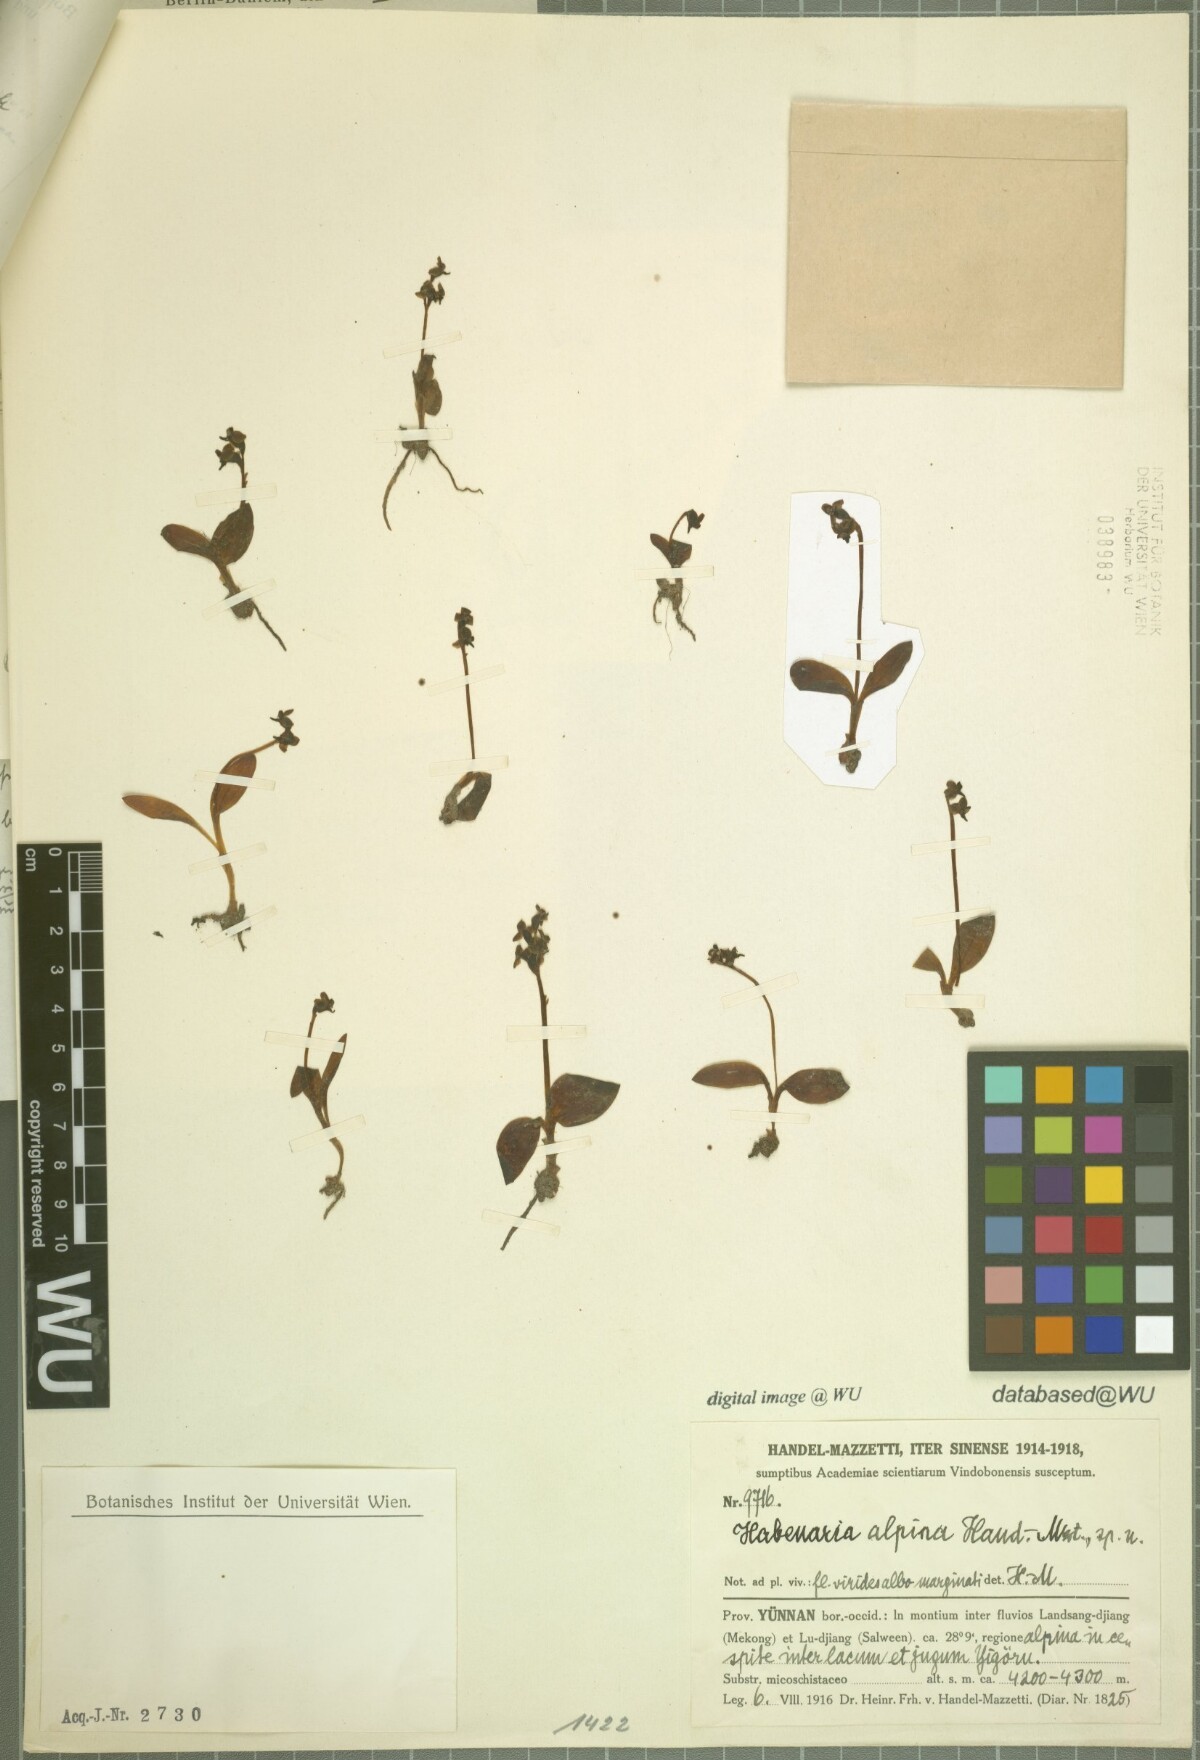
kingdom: Plantae
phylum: Tracheophyta
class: Liliopsida
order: Asparagales
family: Orchidaceae
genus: Herminium
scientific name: Herminium handelii
